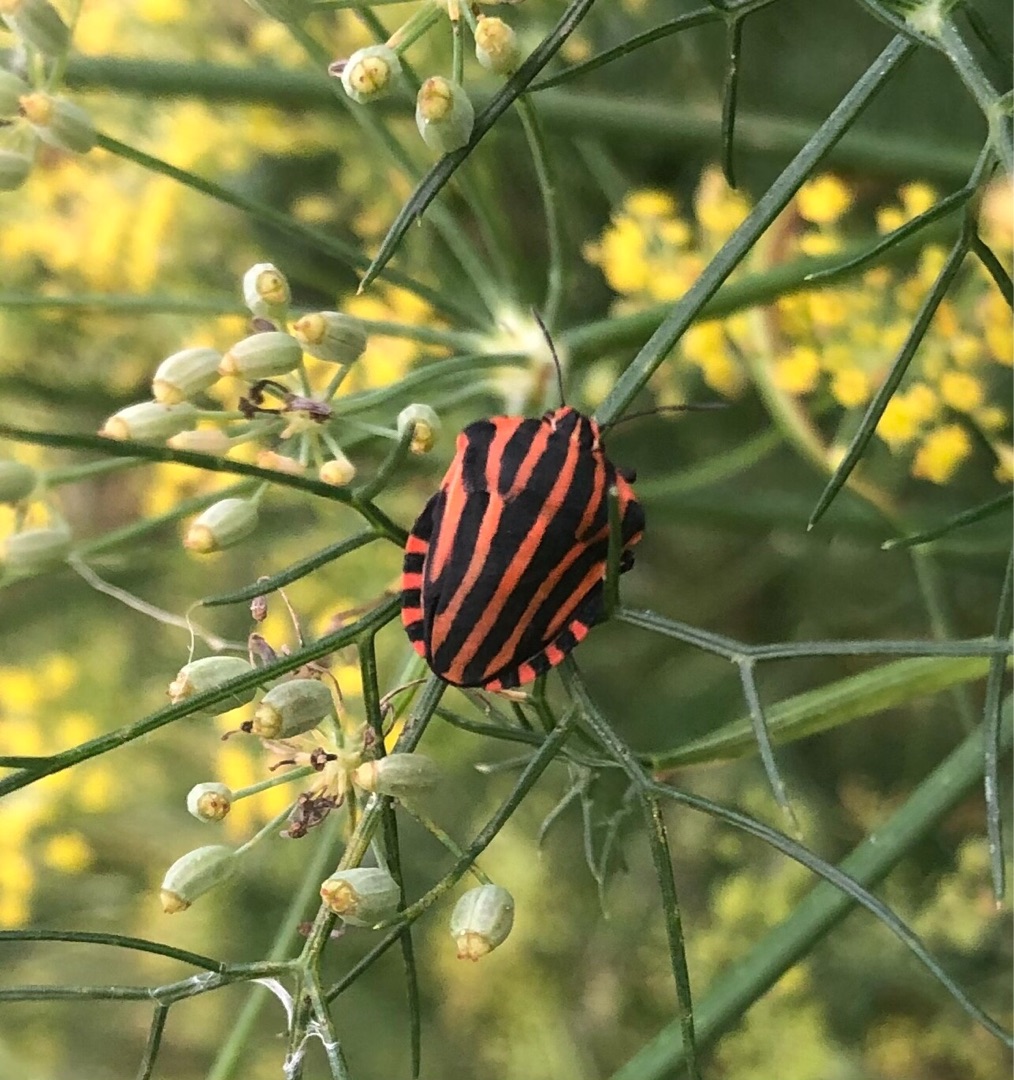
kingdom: Animalia
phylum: Arthropoda
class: Insecta
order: Hemiptera
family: Pentatomidae
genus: Graphosoma
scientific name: Graphosoma italicum
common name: Stribetæge
